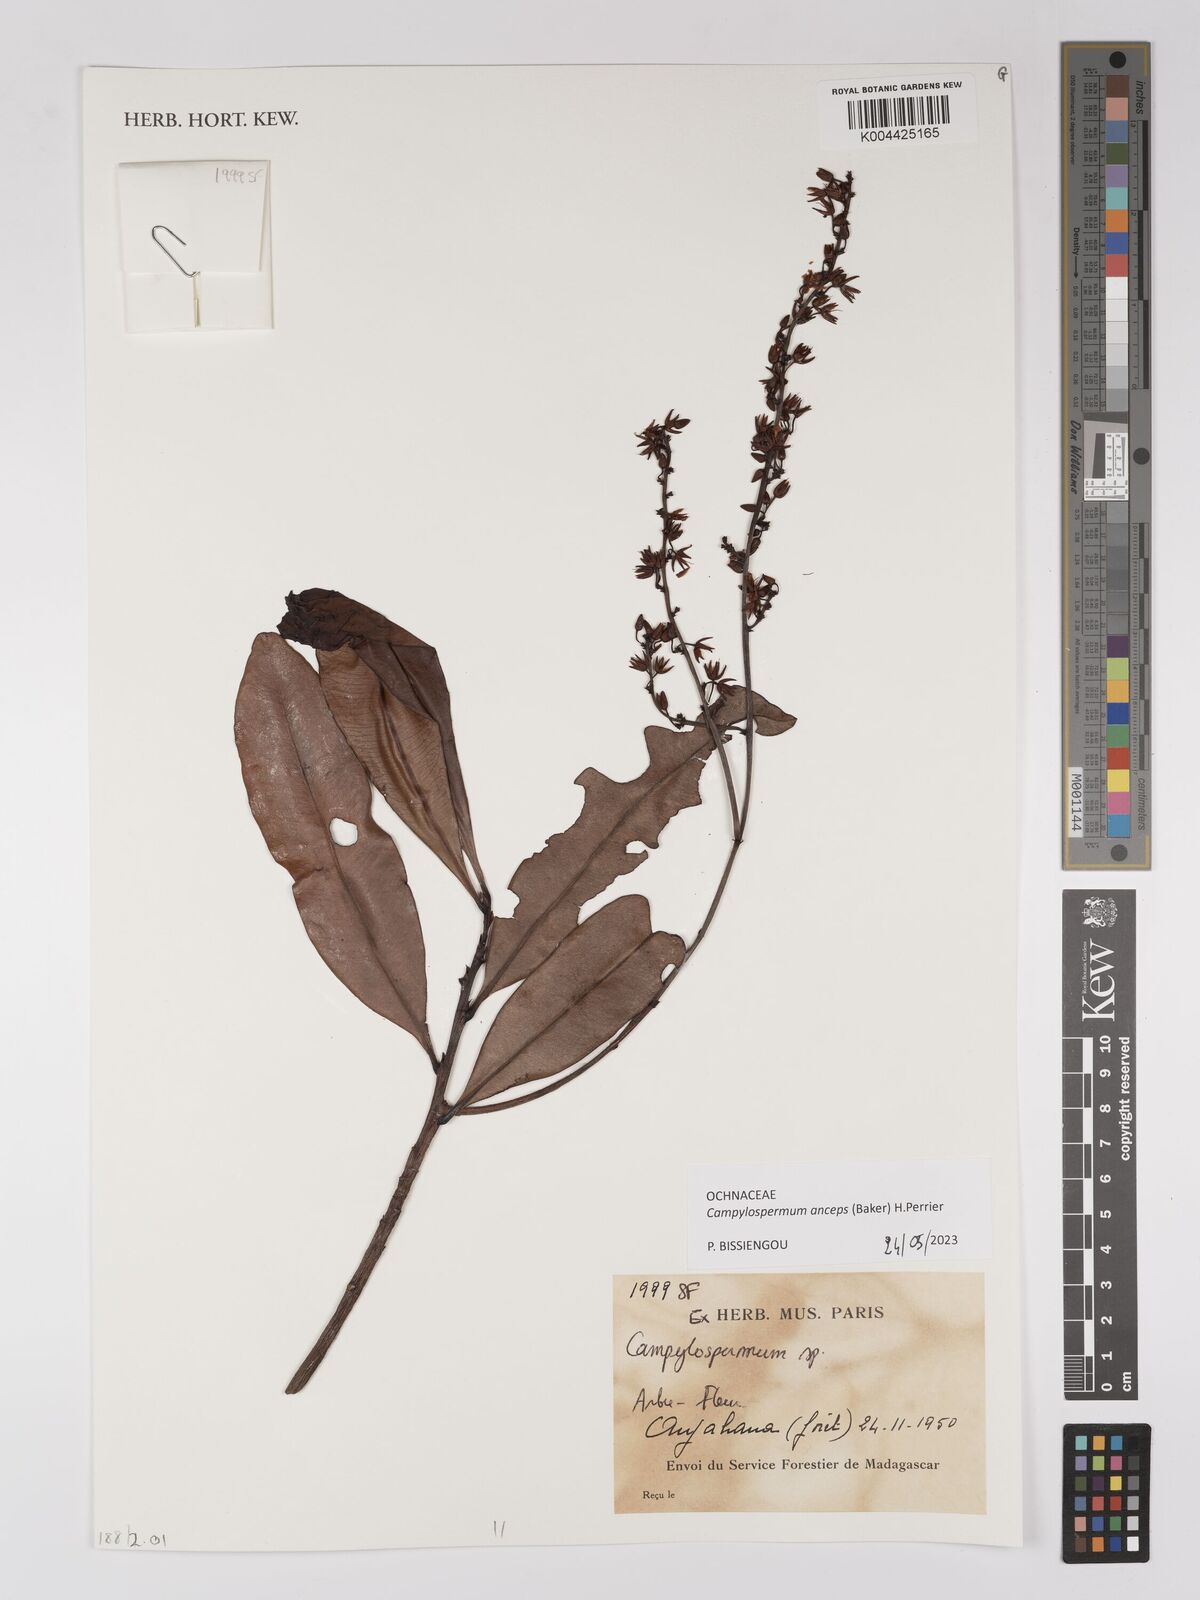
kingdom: Plantae
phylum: Tracheophyta
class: Magnoliopsida
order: Malpighiales
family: Ochnaceae
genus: Campylospermum
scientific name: Campylospermum
